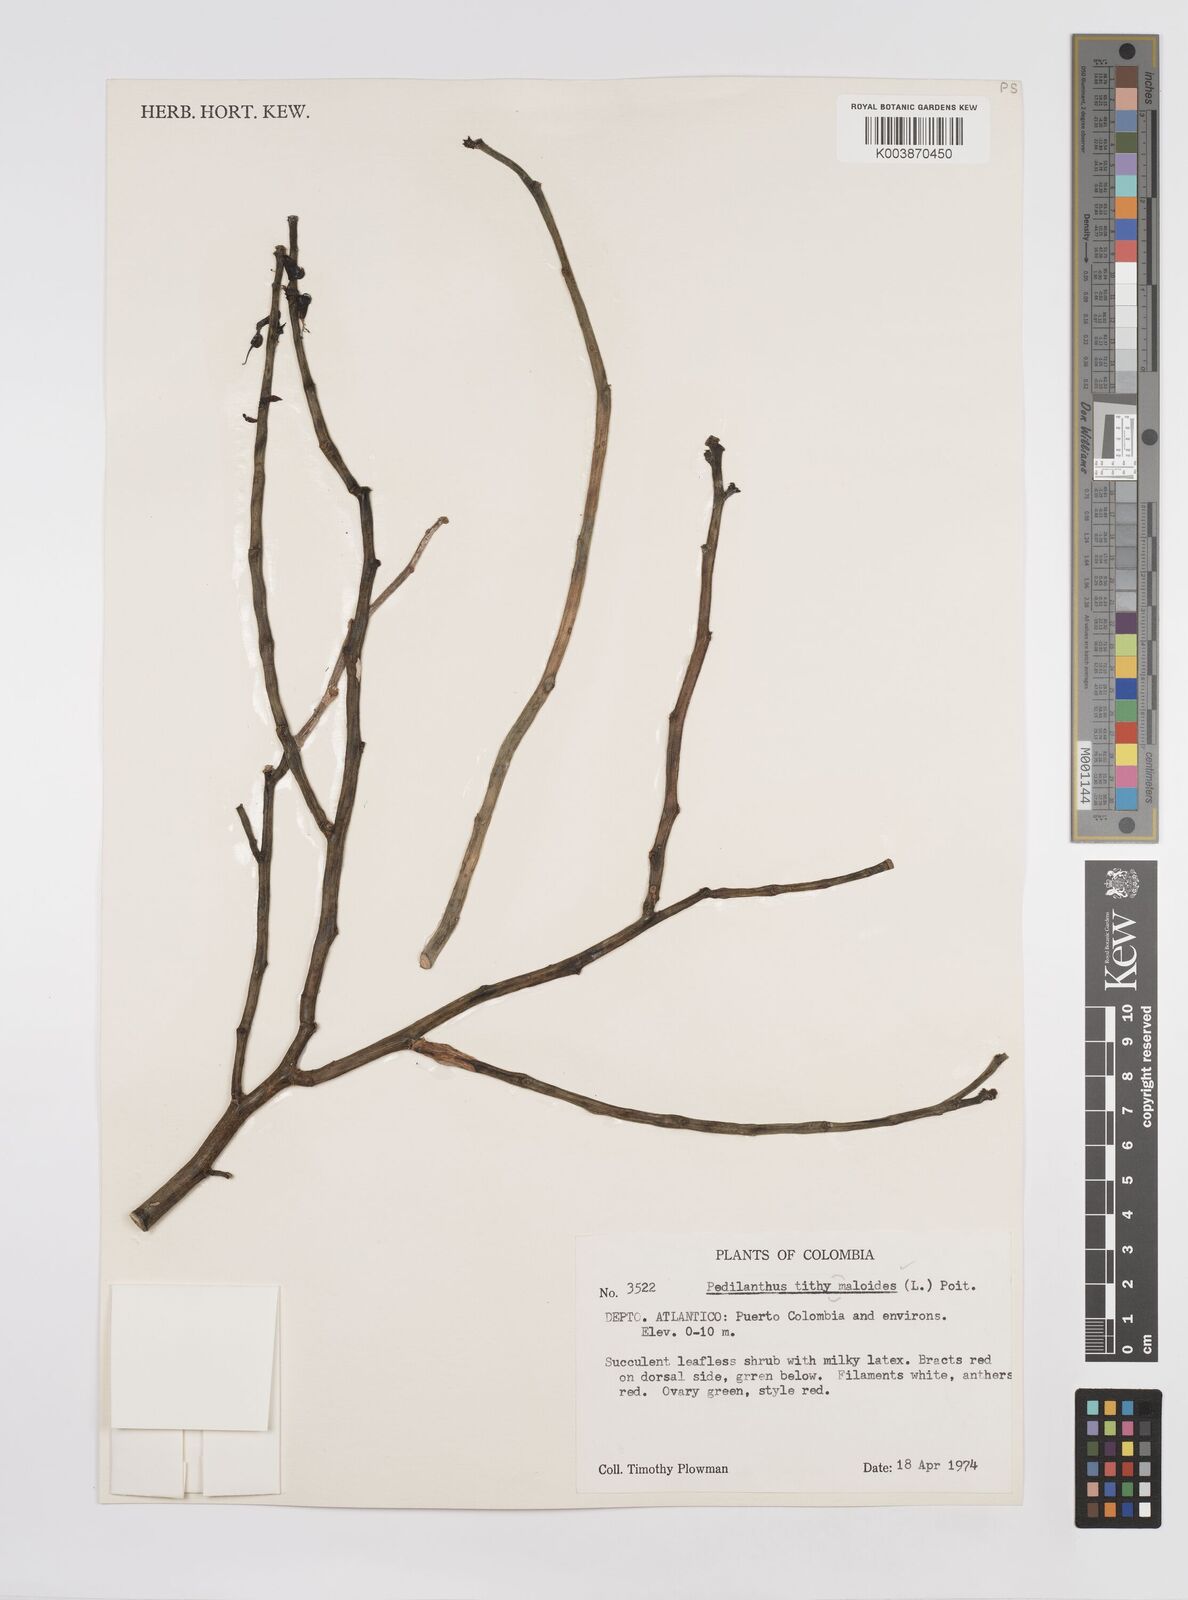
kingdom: Plantae
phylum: Tracheophyta
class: Magnoliopsida
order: Malpighiales
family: Euphorbiaceae
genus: Euphorbia
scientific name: Euphorbia tithymaloides
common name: Slipperplant
